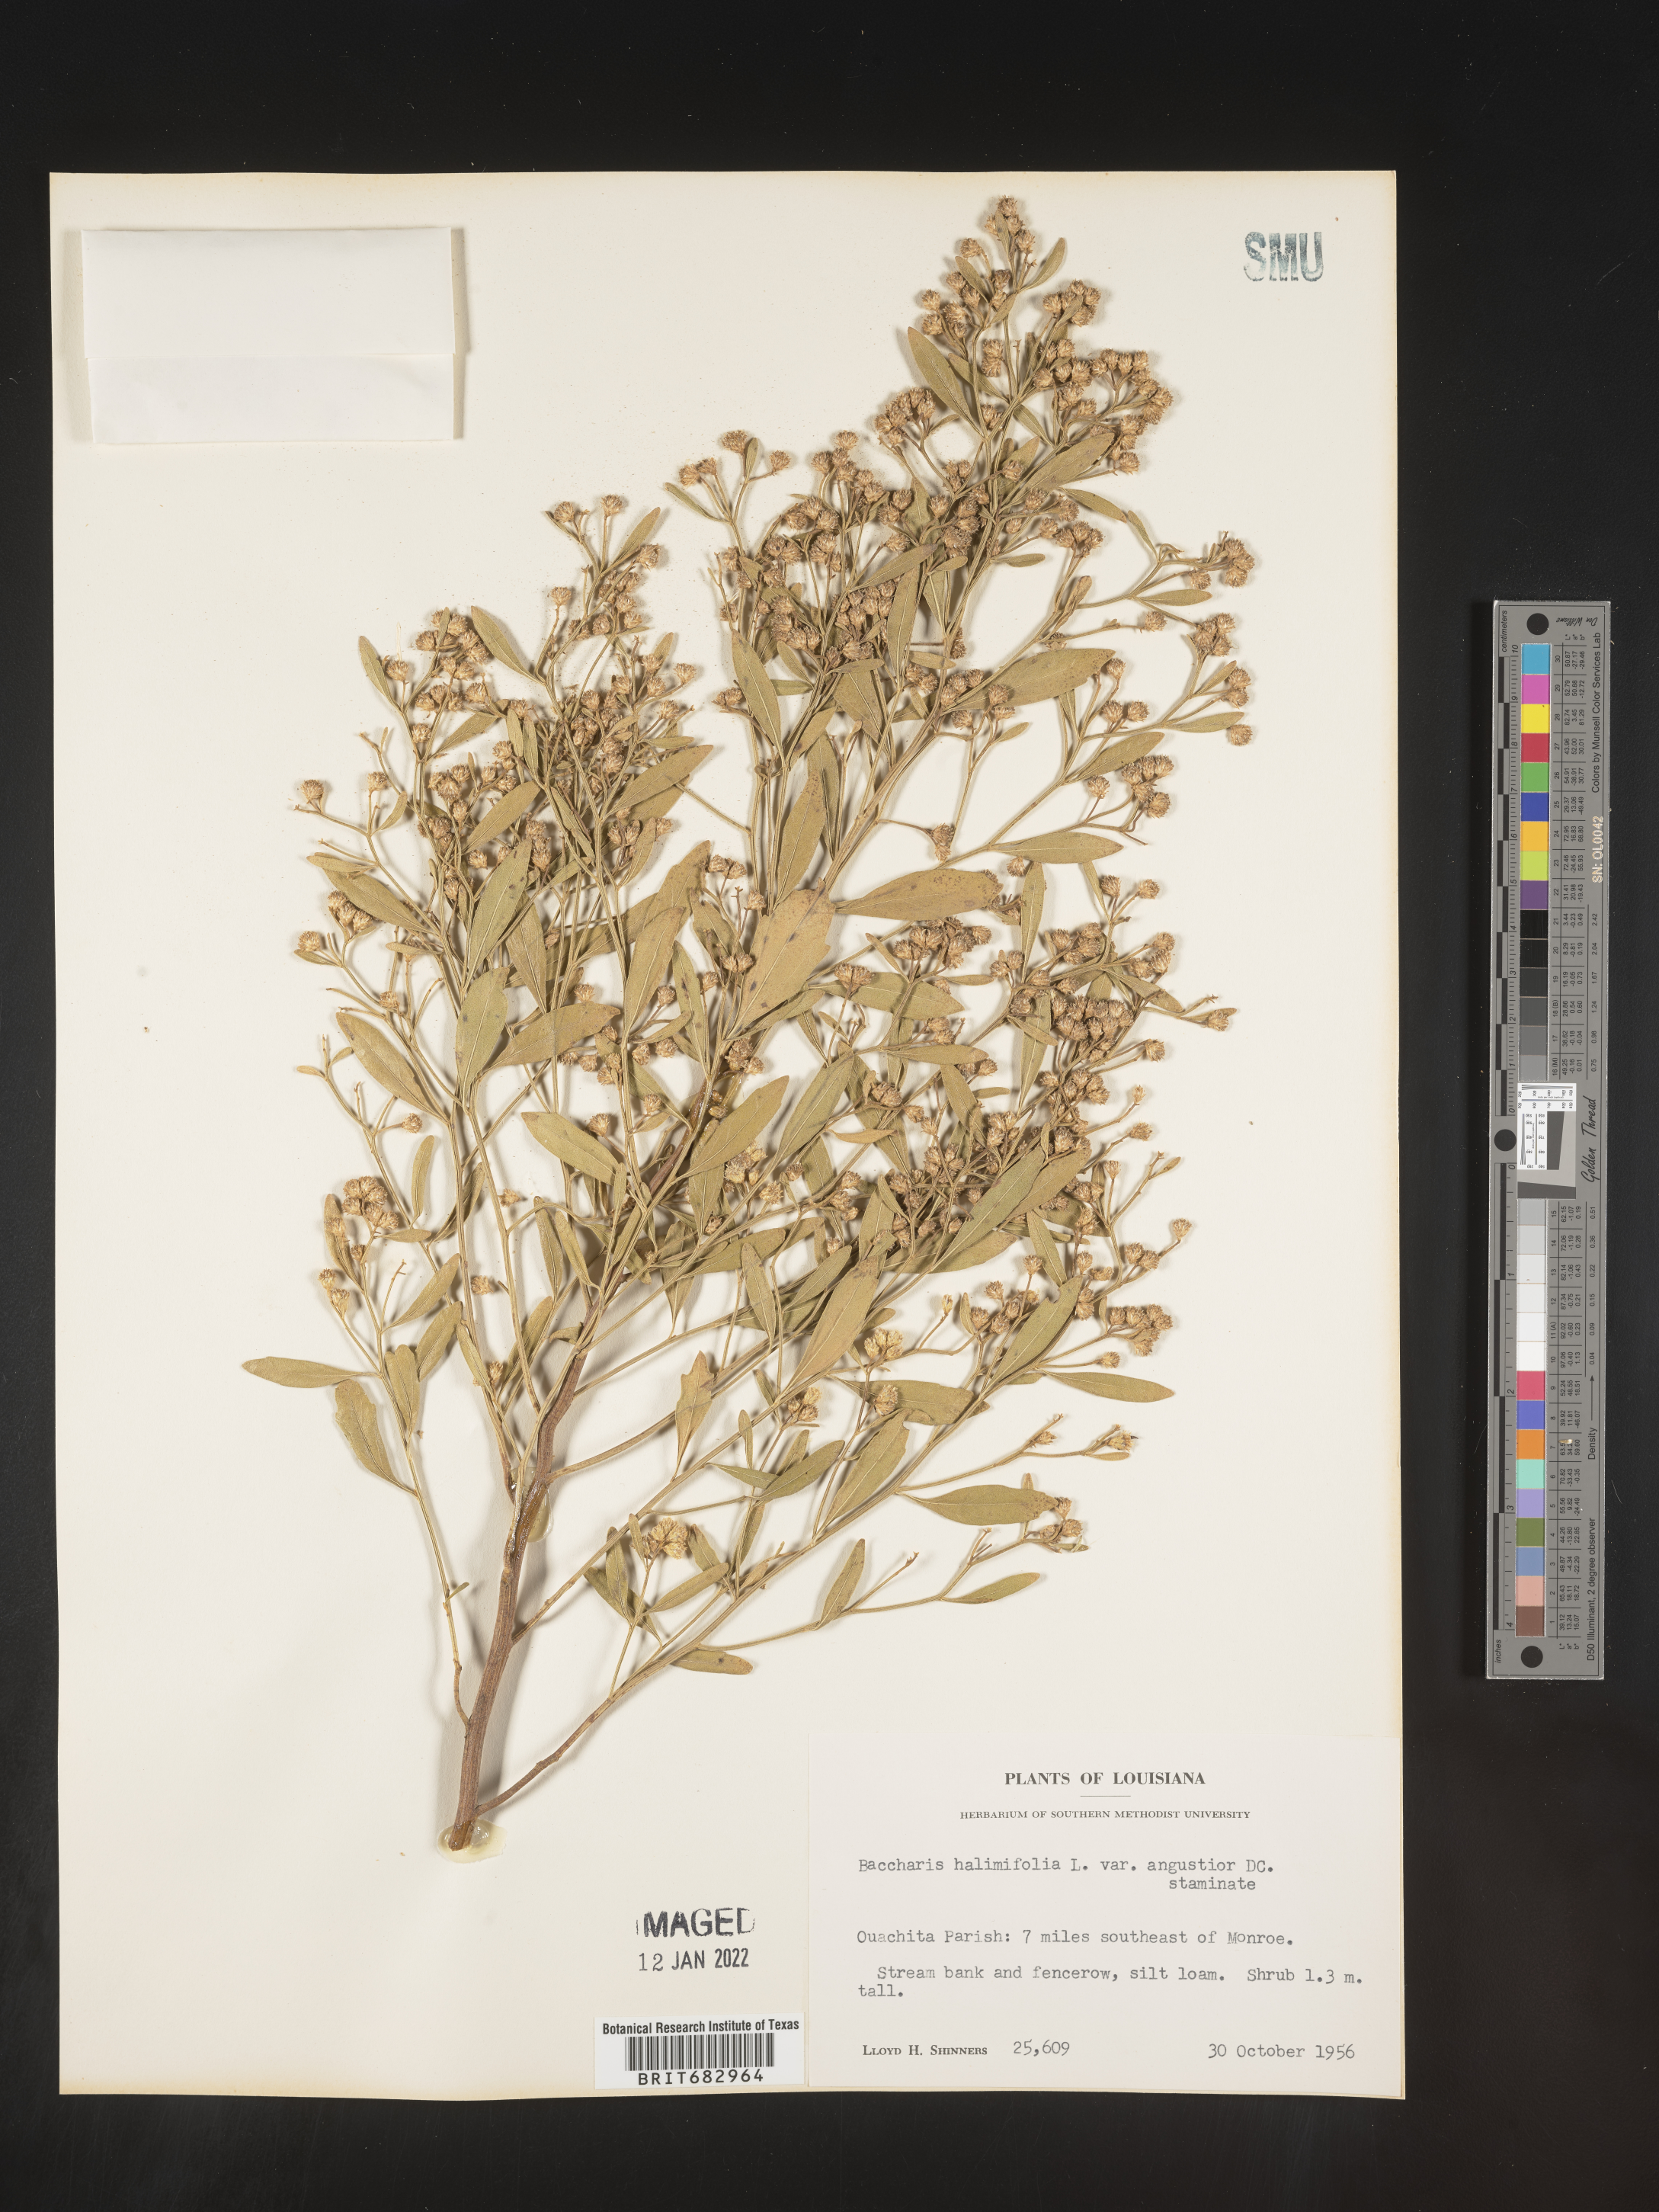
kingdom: Plantae
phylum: Tracheophyta
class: Magnoliopsida
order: Asterales
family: Asteraceae
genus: Nidorella
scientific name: Nidorella ivifolia
